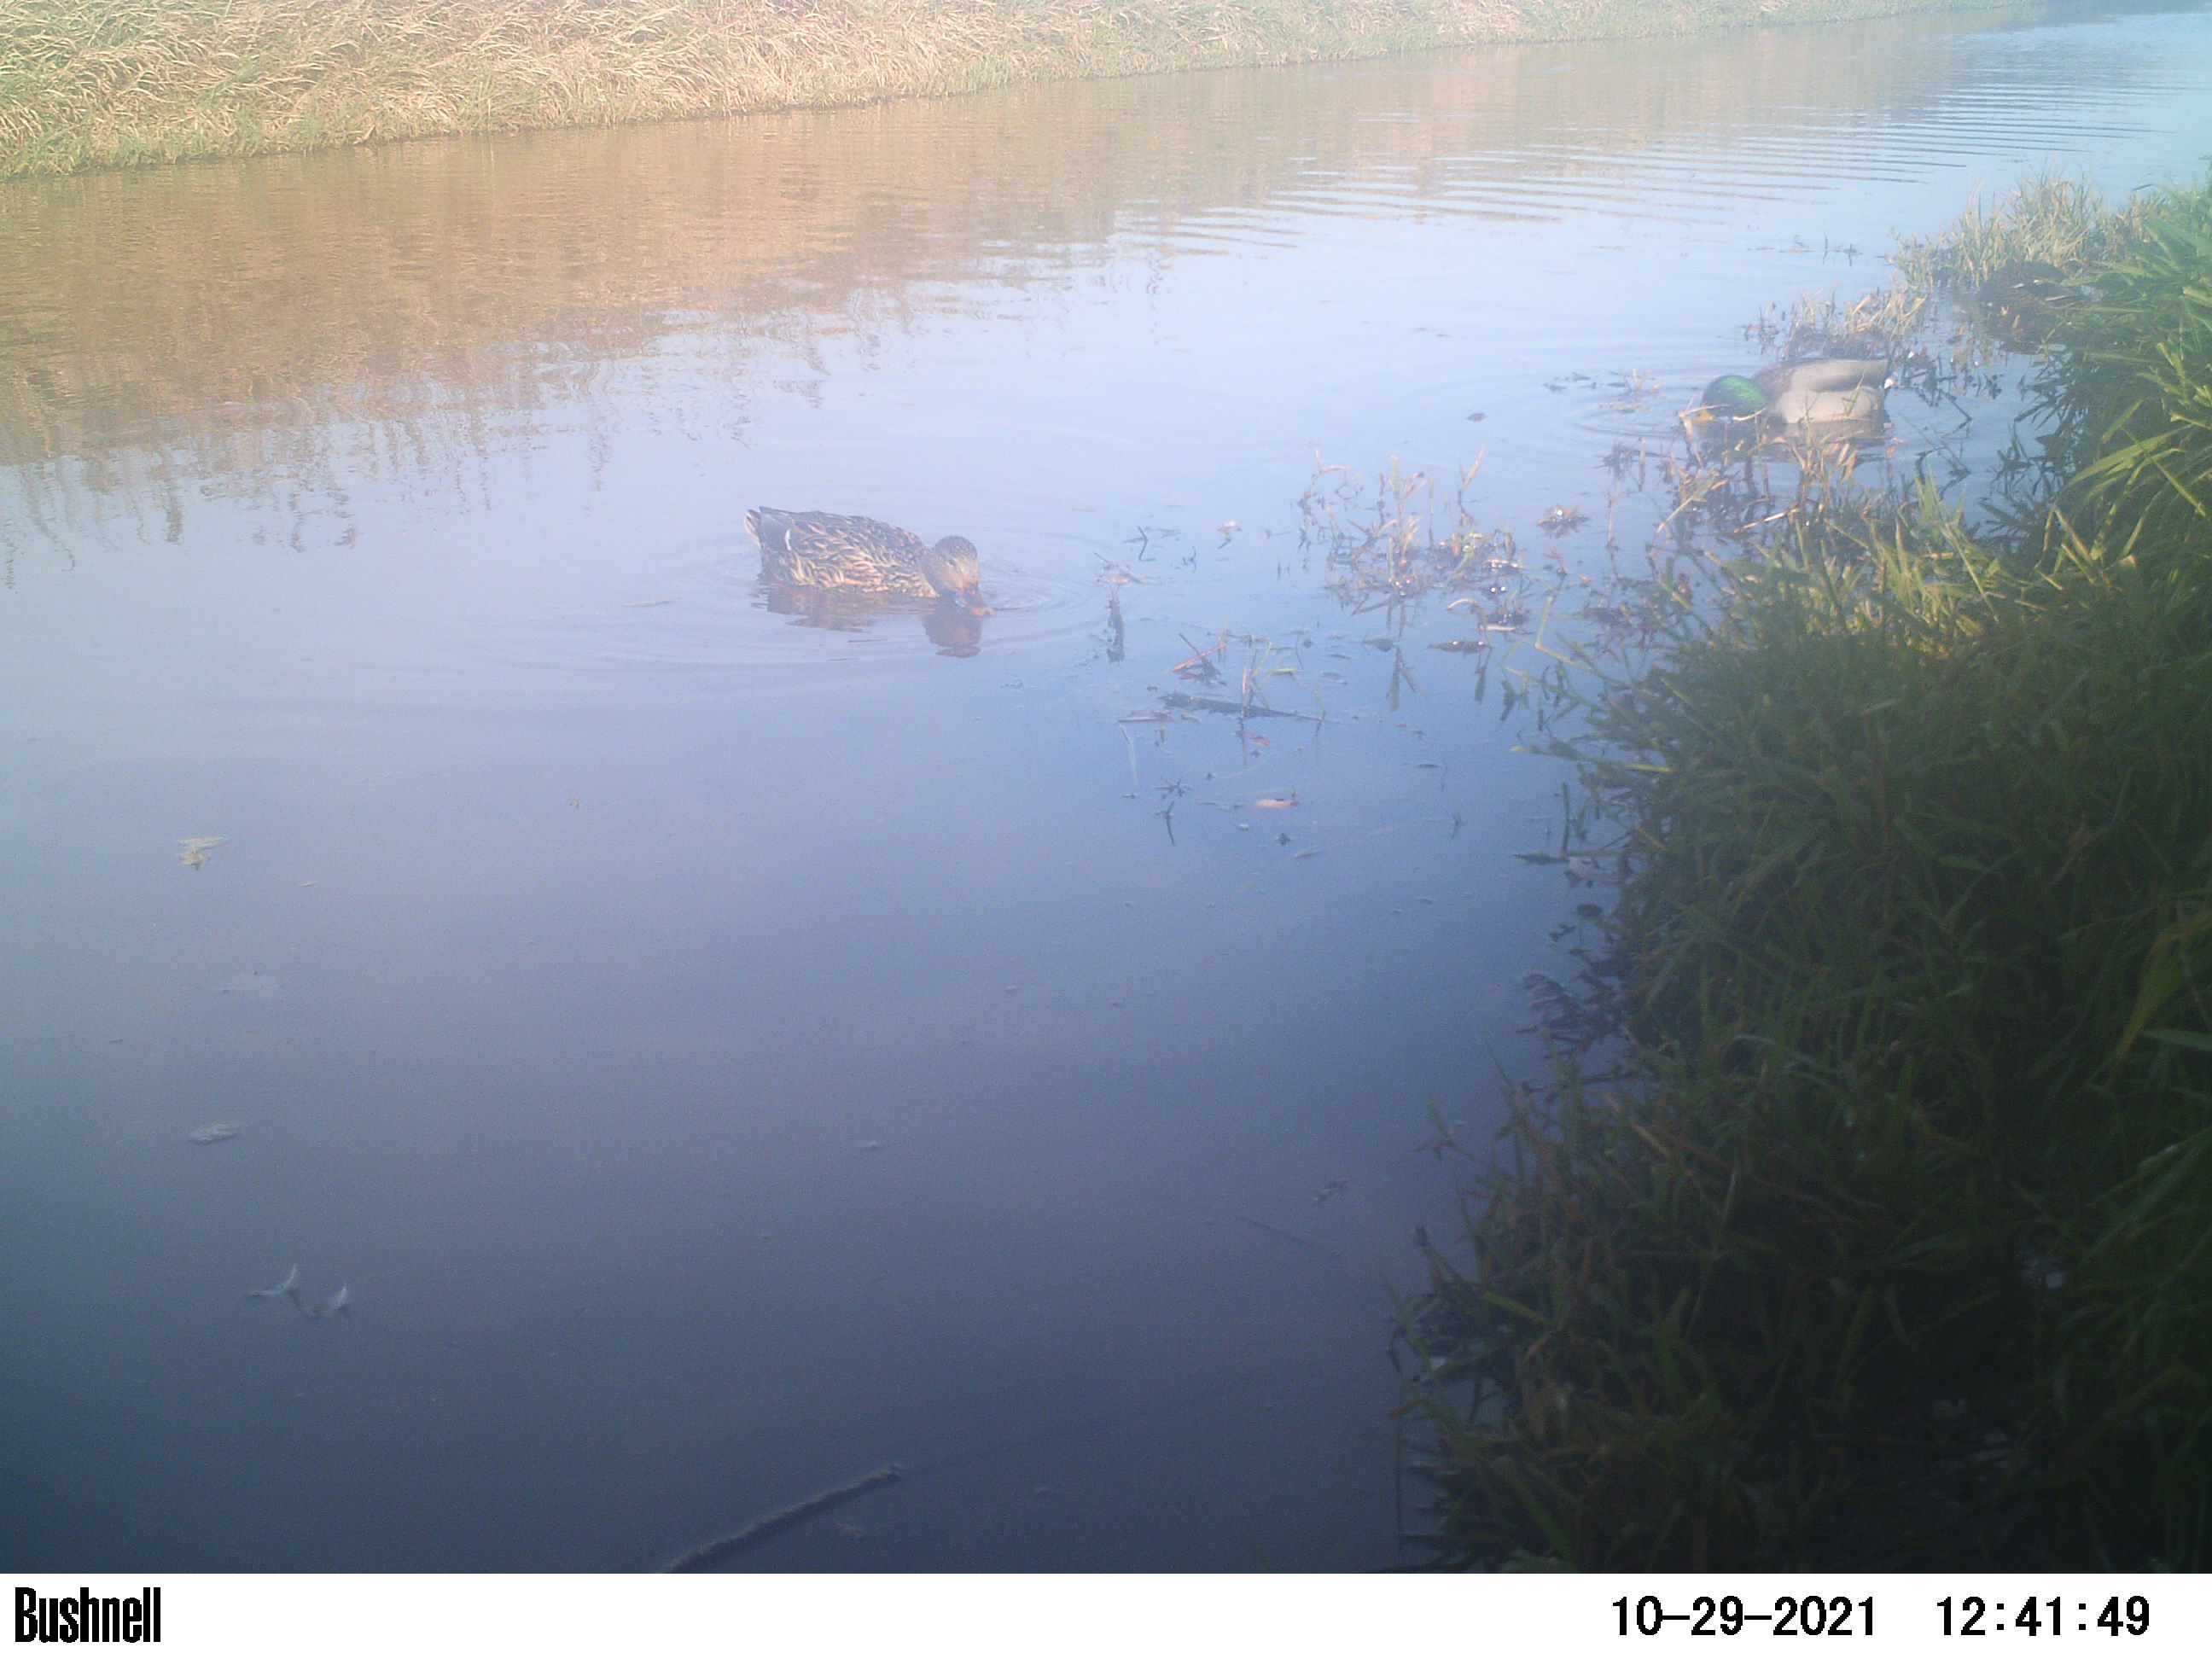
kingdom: Animalia
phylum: Chordata
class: Aves
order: Anseriformes
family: Anatidae
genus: Anas
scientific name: Anas
